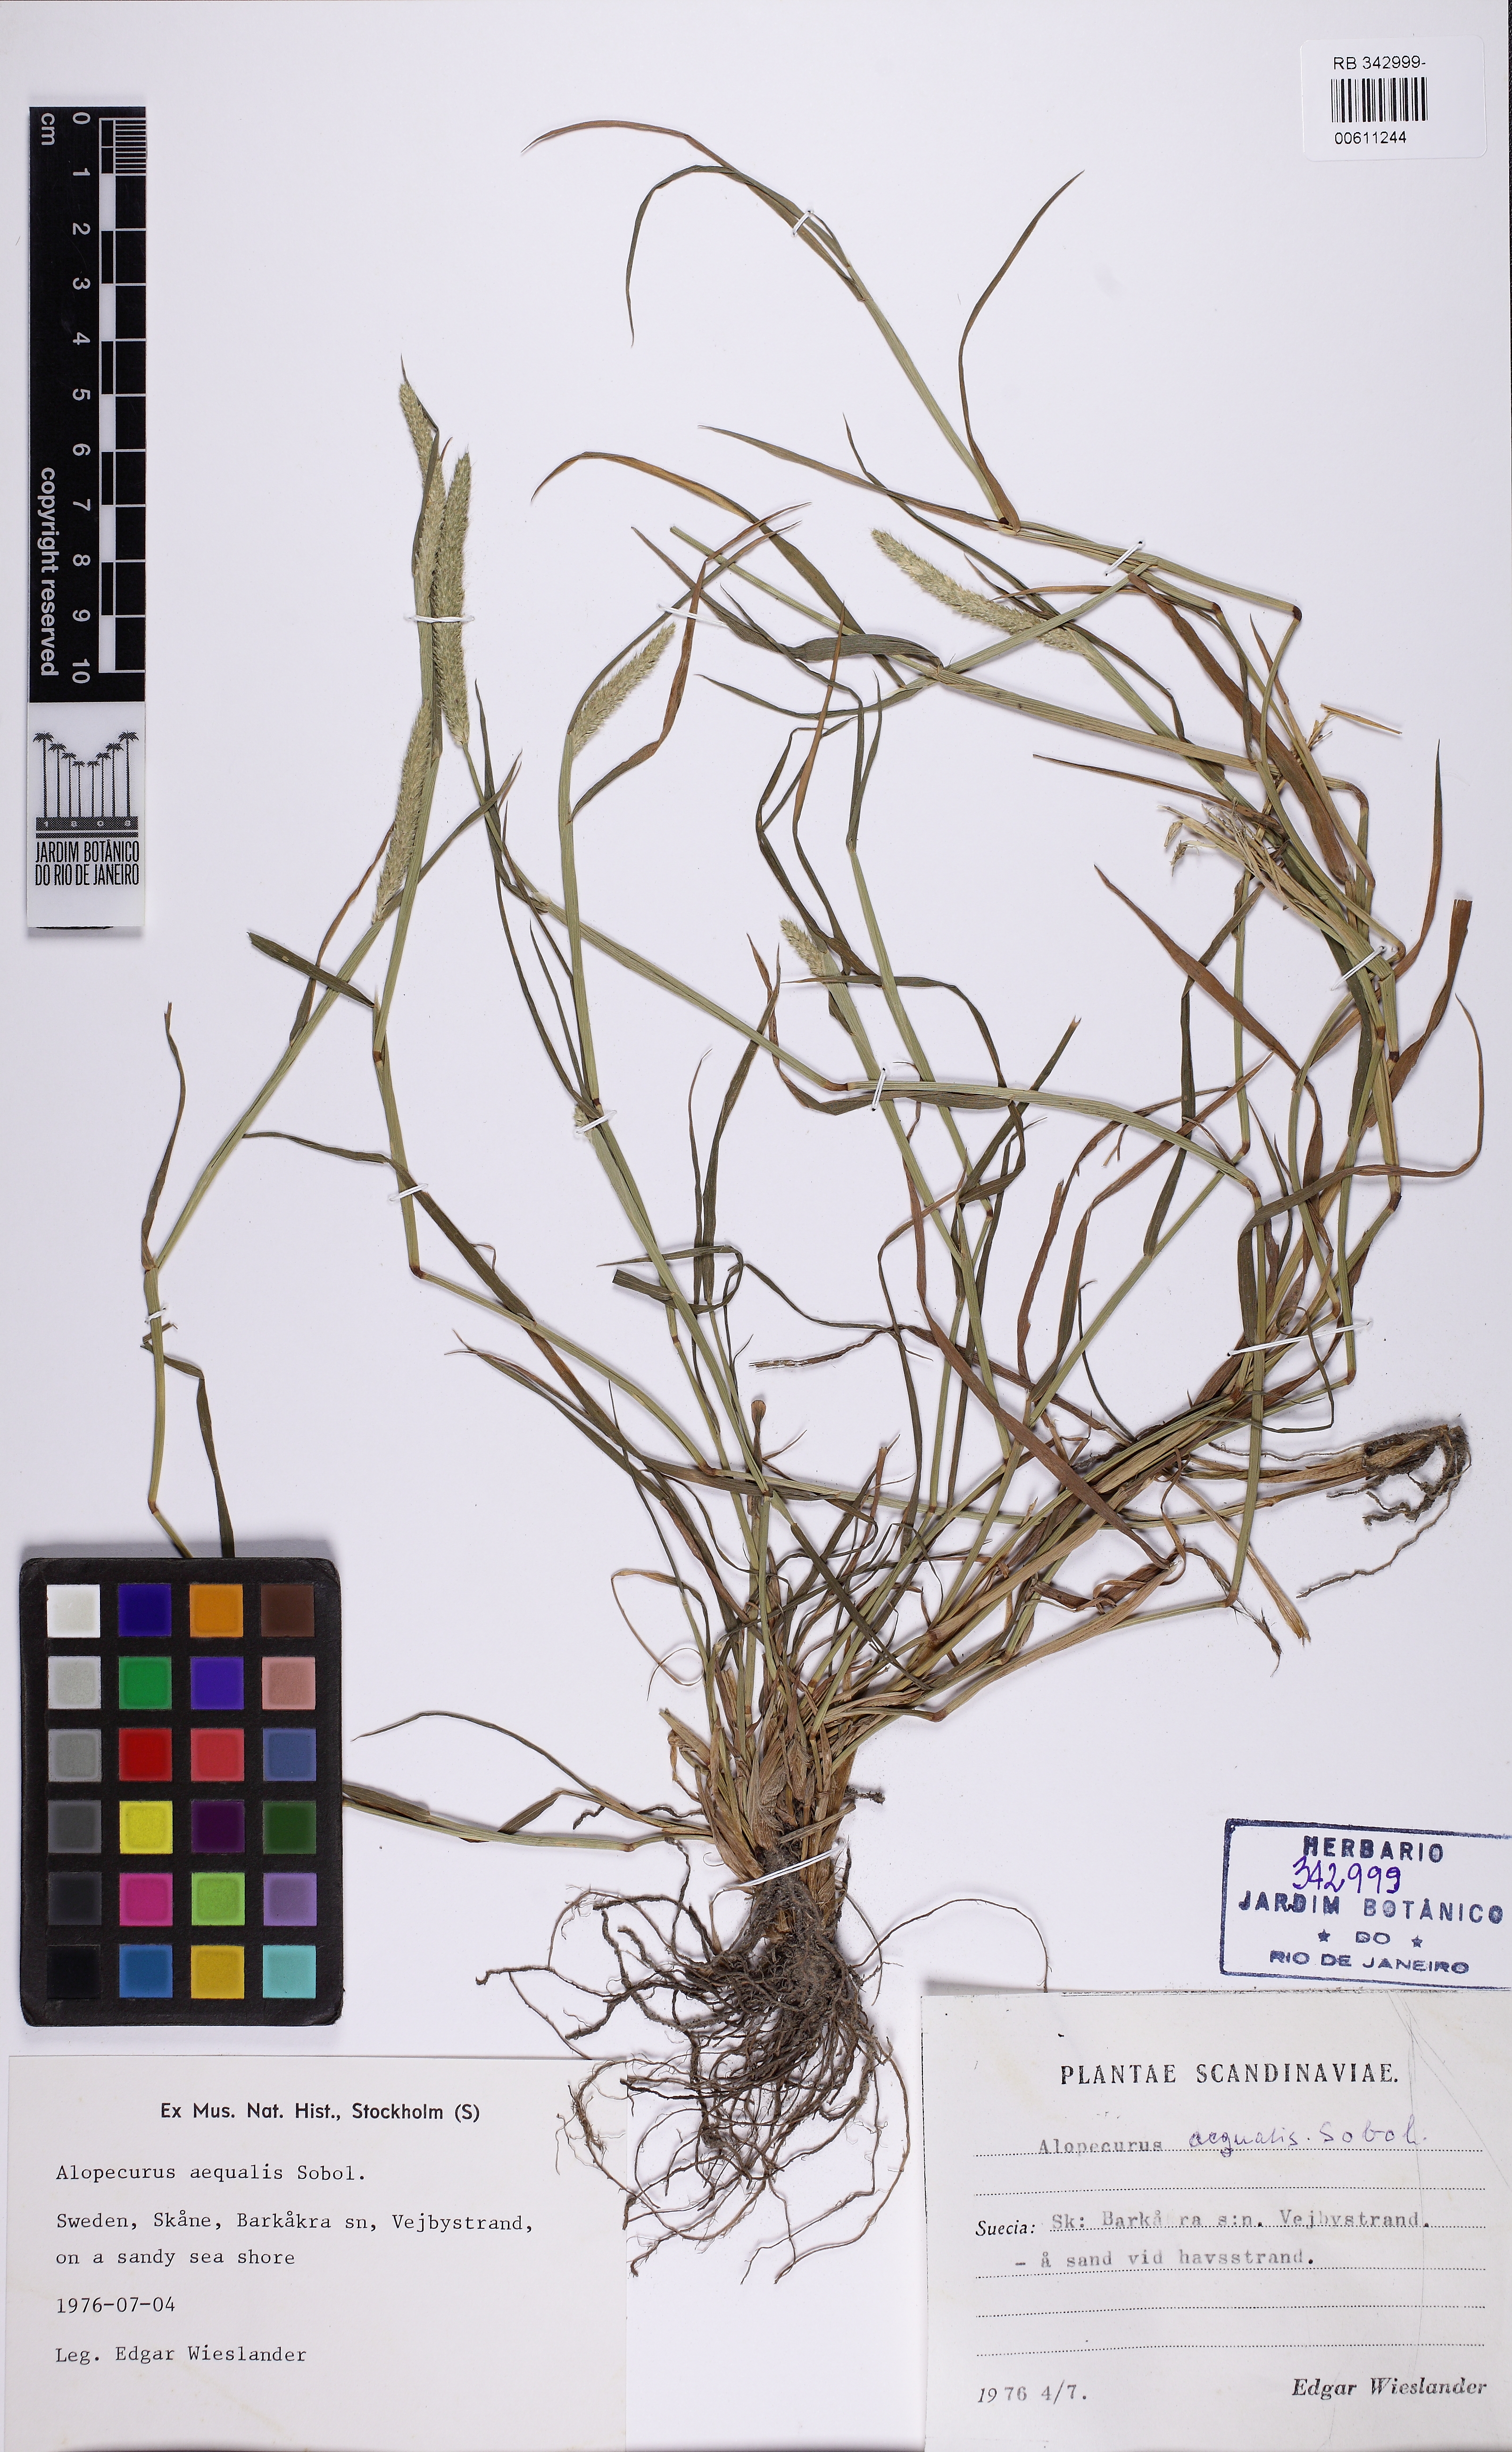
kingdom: Plantae
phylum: Tracheophyta
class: Liliopsida
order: Poales
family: Poaceae
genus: Alopecurus
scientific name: Alopecurus aequalis
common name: Orange foxtail
